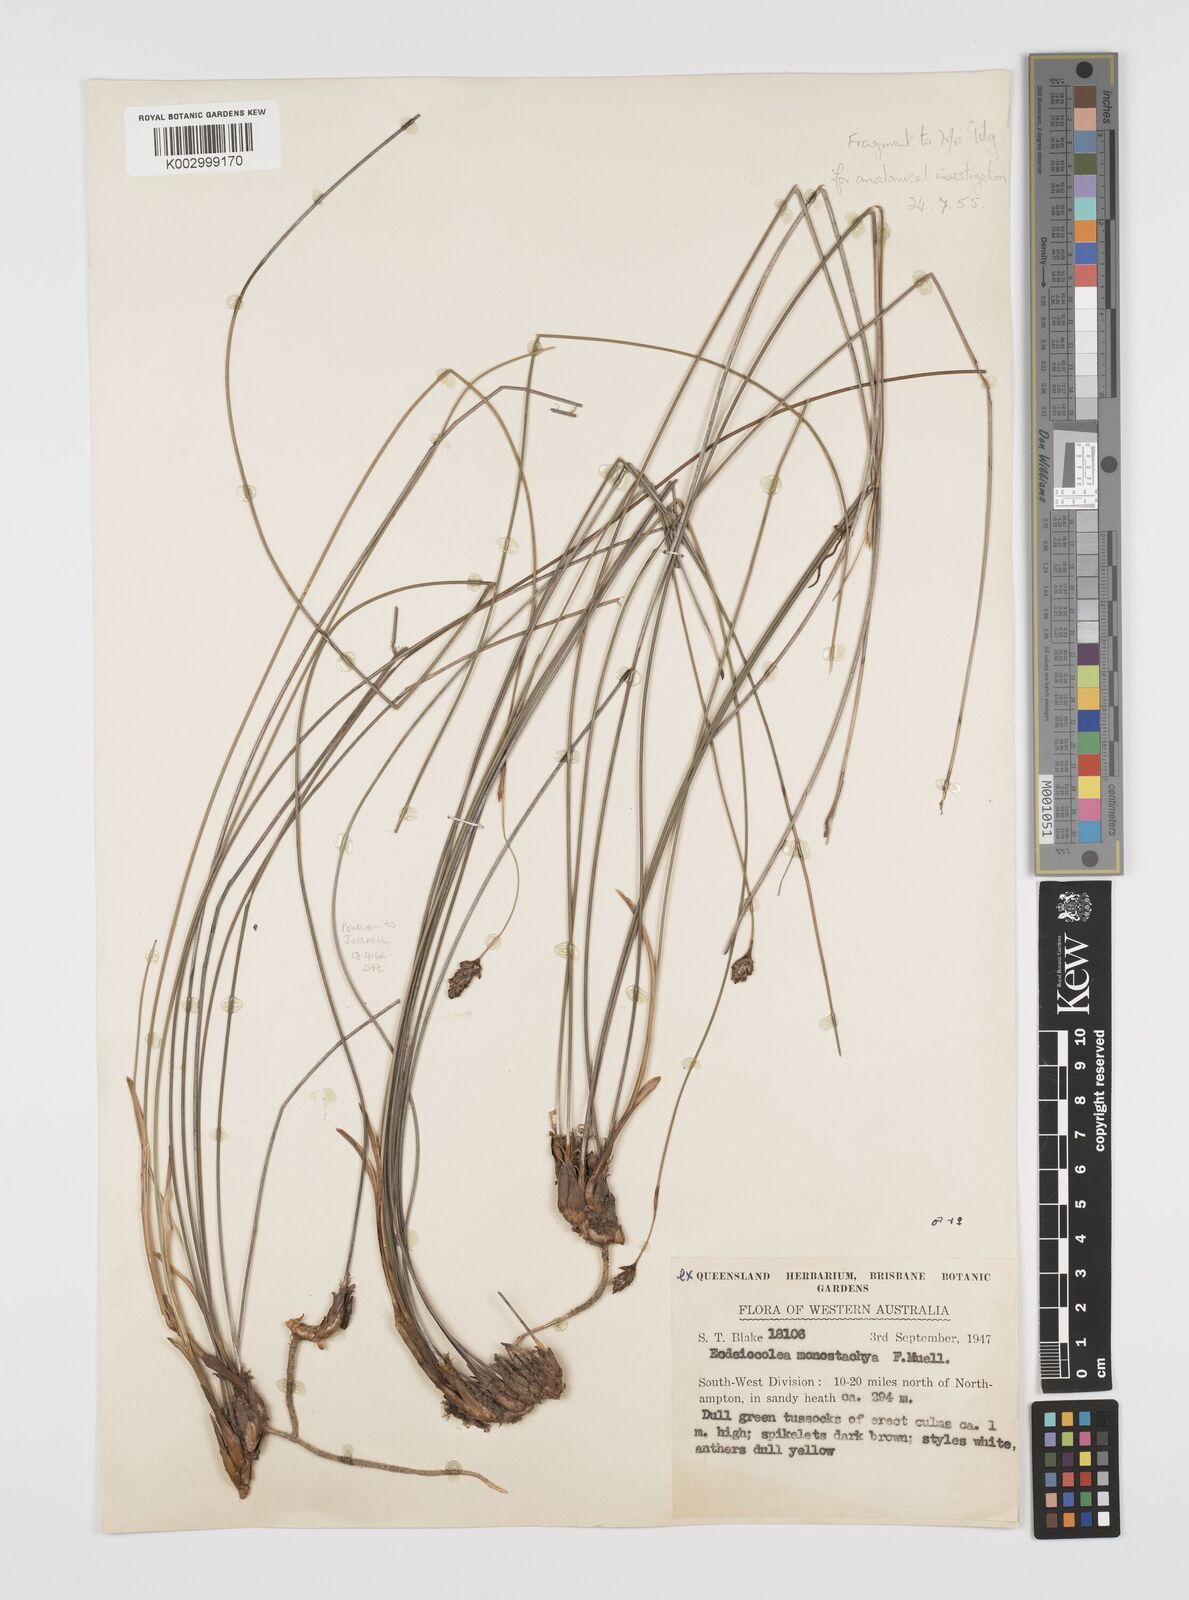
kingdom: Plantae
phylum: Tracheophyta
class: Liliopsida
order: Poales
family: Ecdeiocoleaceae
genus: Ecdeiocolea
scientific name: Ecdeiocolea monostachya
